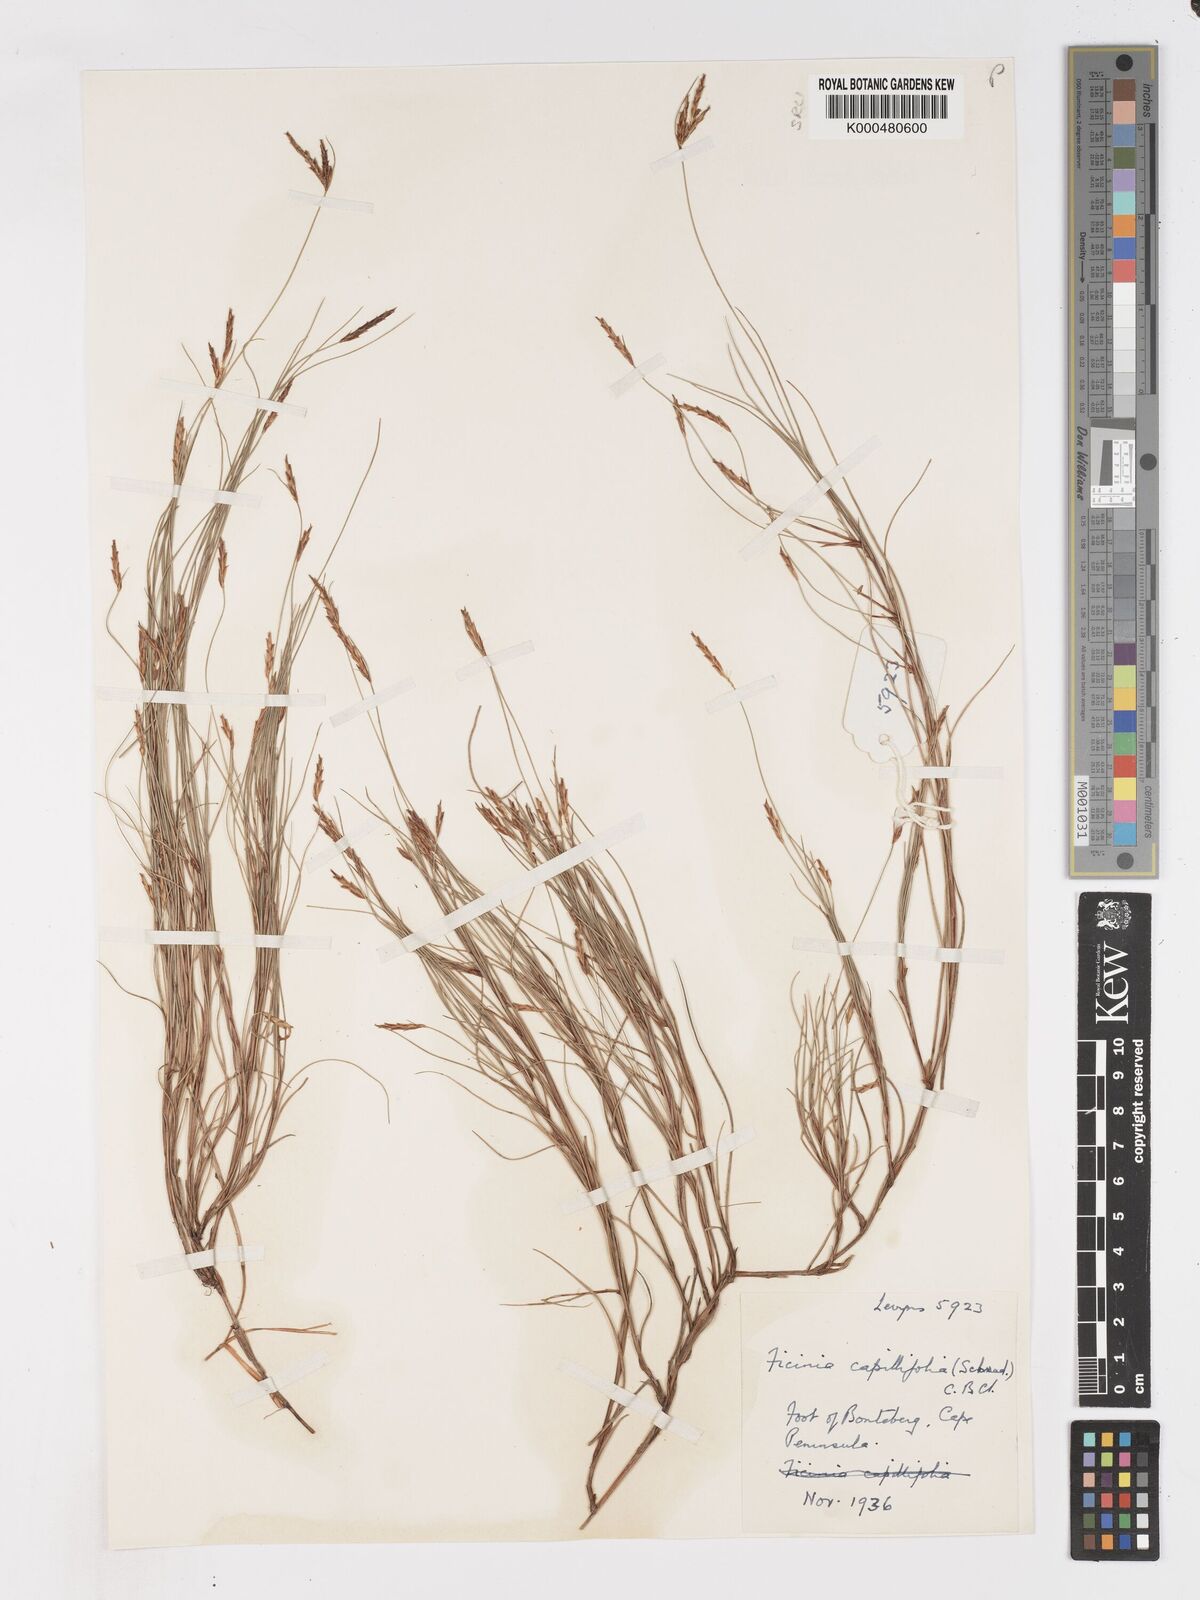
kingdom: Plantae
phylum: Tracheophyta
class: Liliopsida
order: Poales
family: Cyperaceae
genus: Ficinia
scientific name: Ficinia capillifolia
